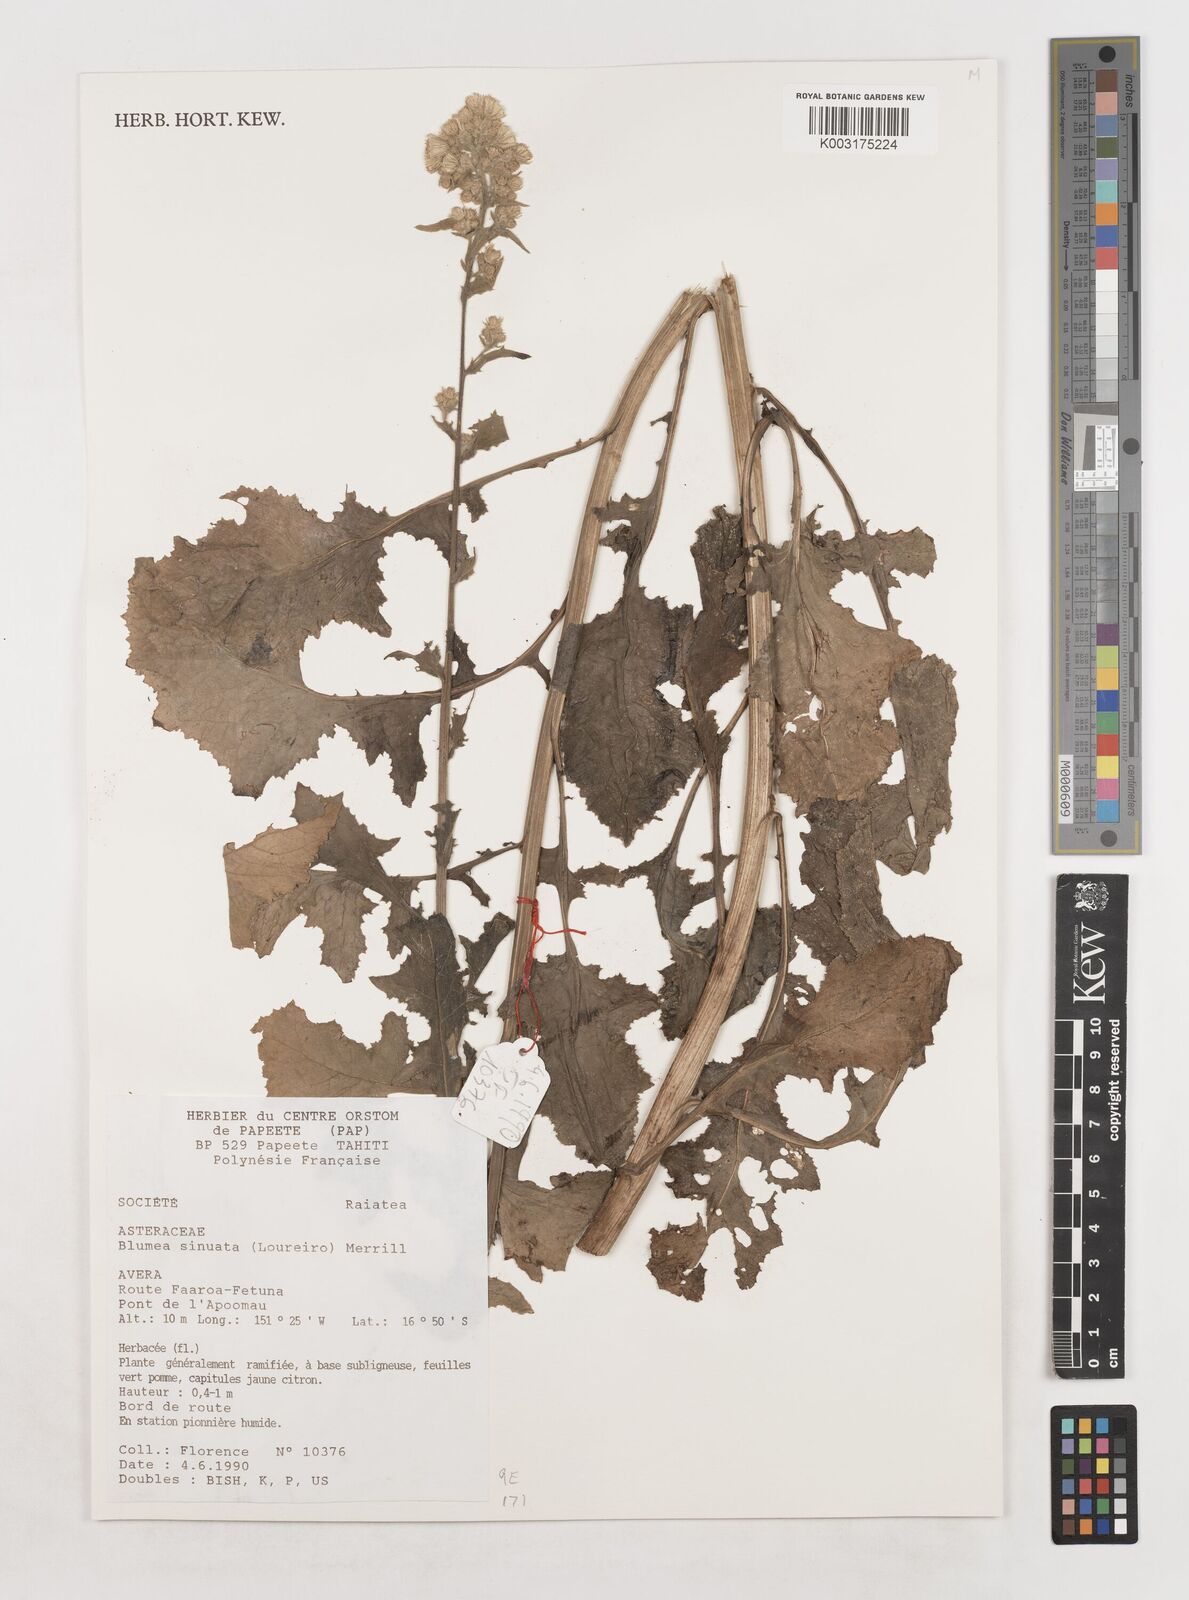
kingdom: Plantae
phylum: Tracheophyta
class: Magnoliopsida
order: Asterales
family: Asteraceae
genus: Blumea
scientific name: Blumea sinuata
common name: Cutleaf false oxtongue
